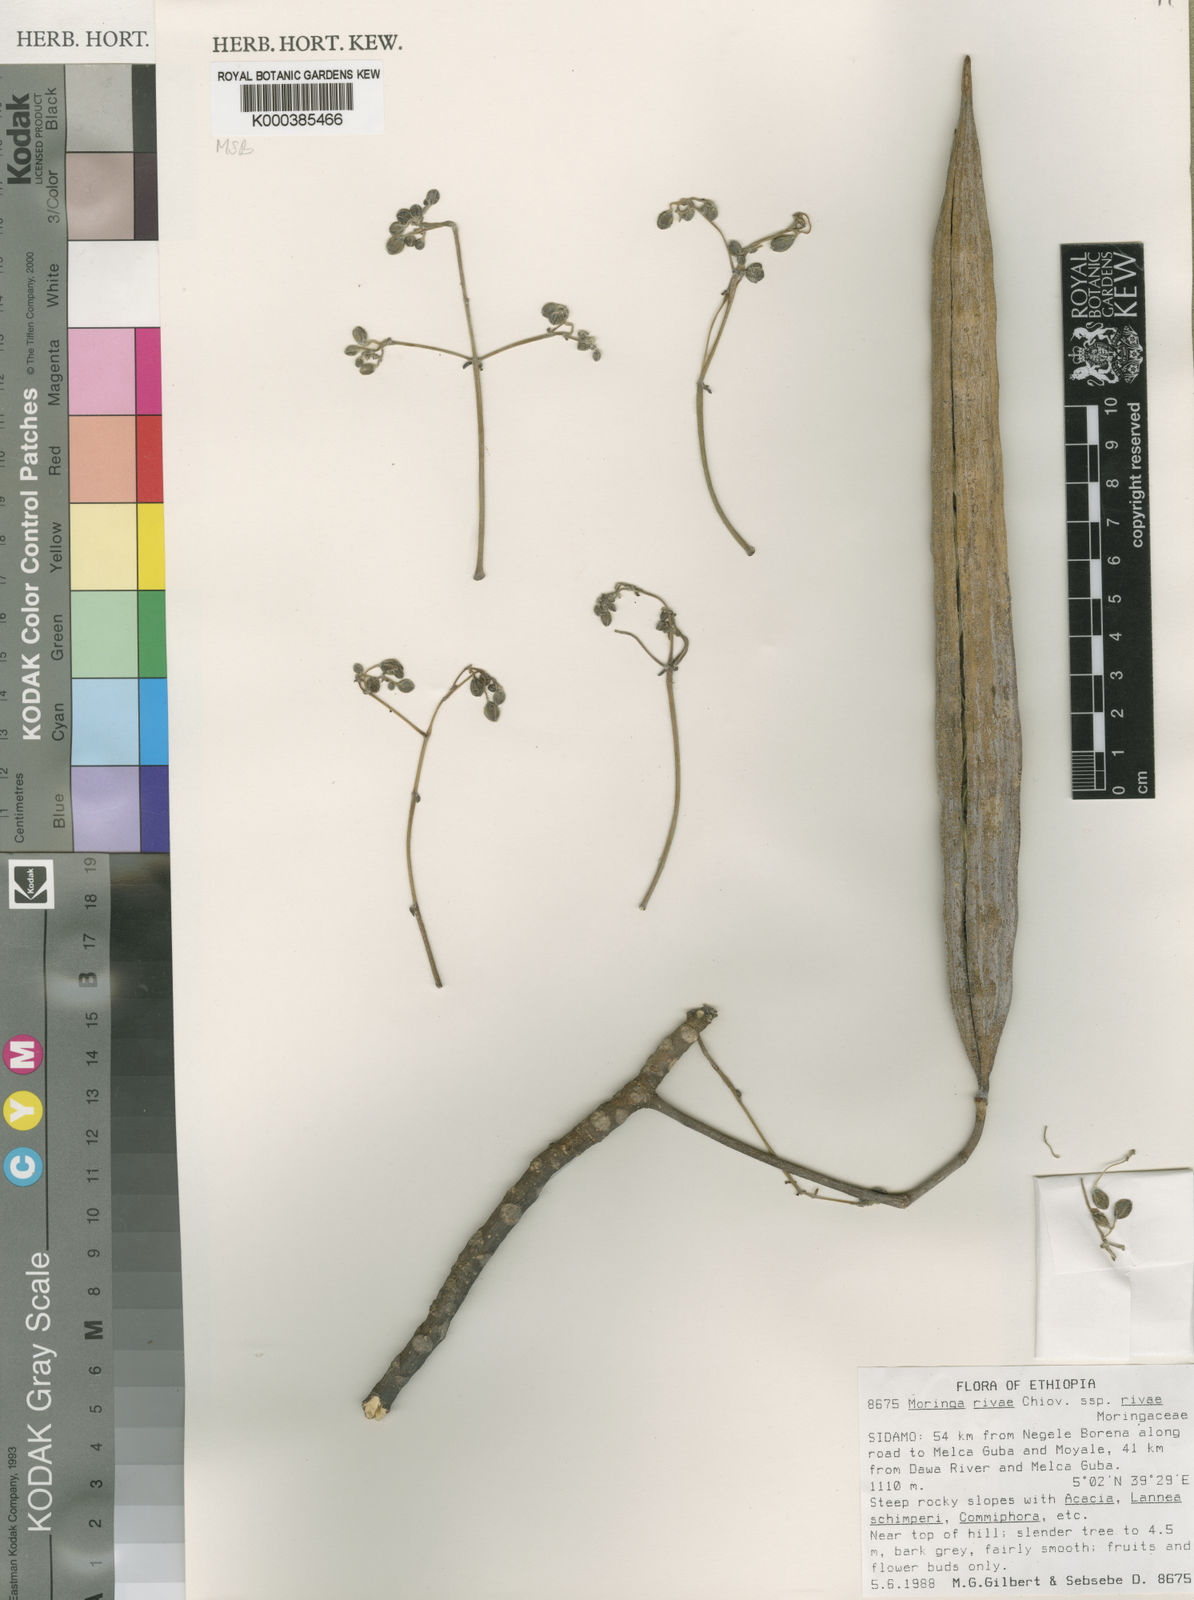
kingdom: Plantae
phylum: Tracheophyta
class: Magnoliopsida
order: Brassicales
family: Moringaceae
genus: Moringa
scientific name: Moringa rivae
